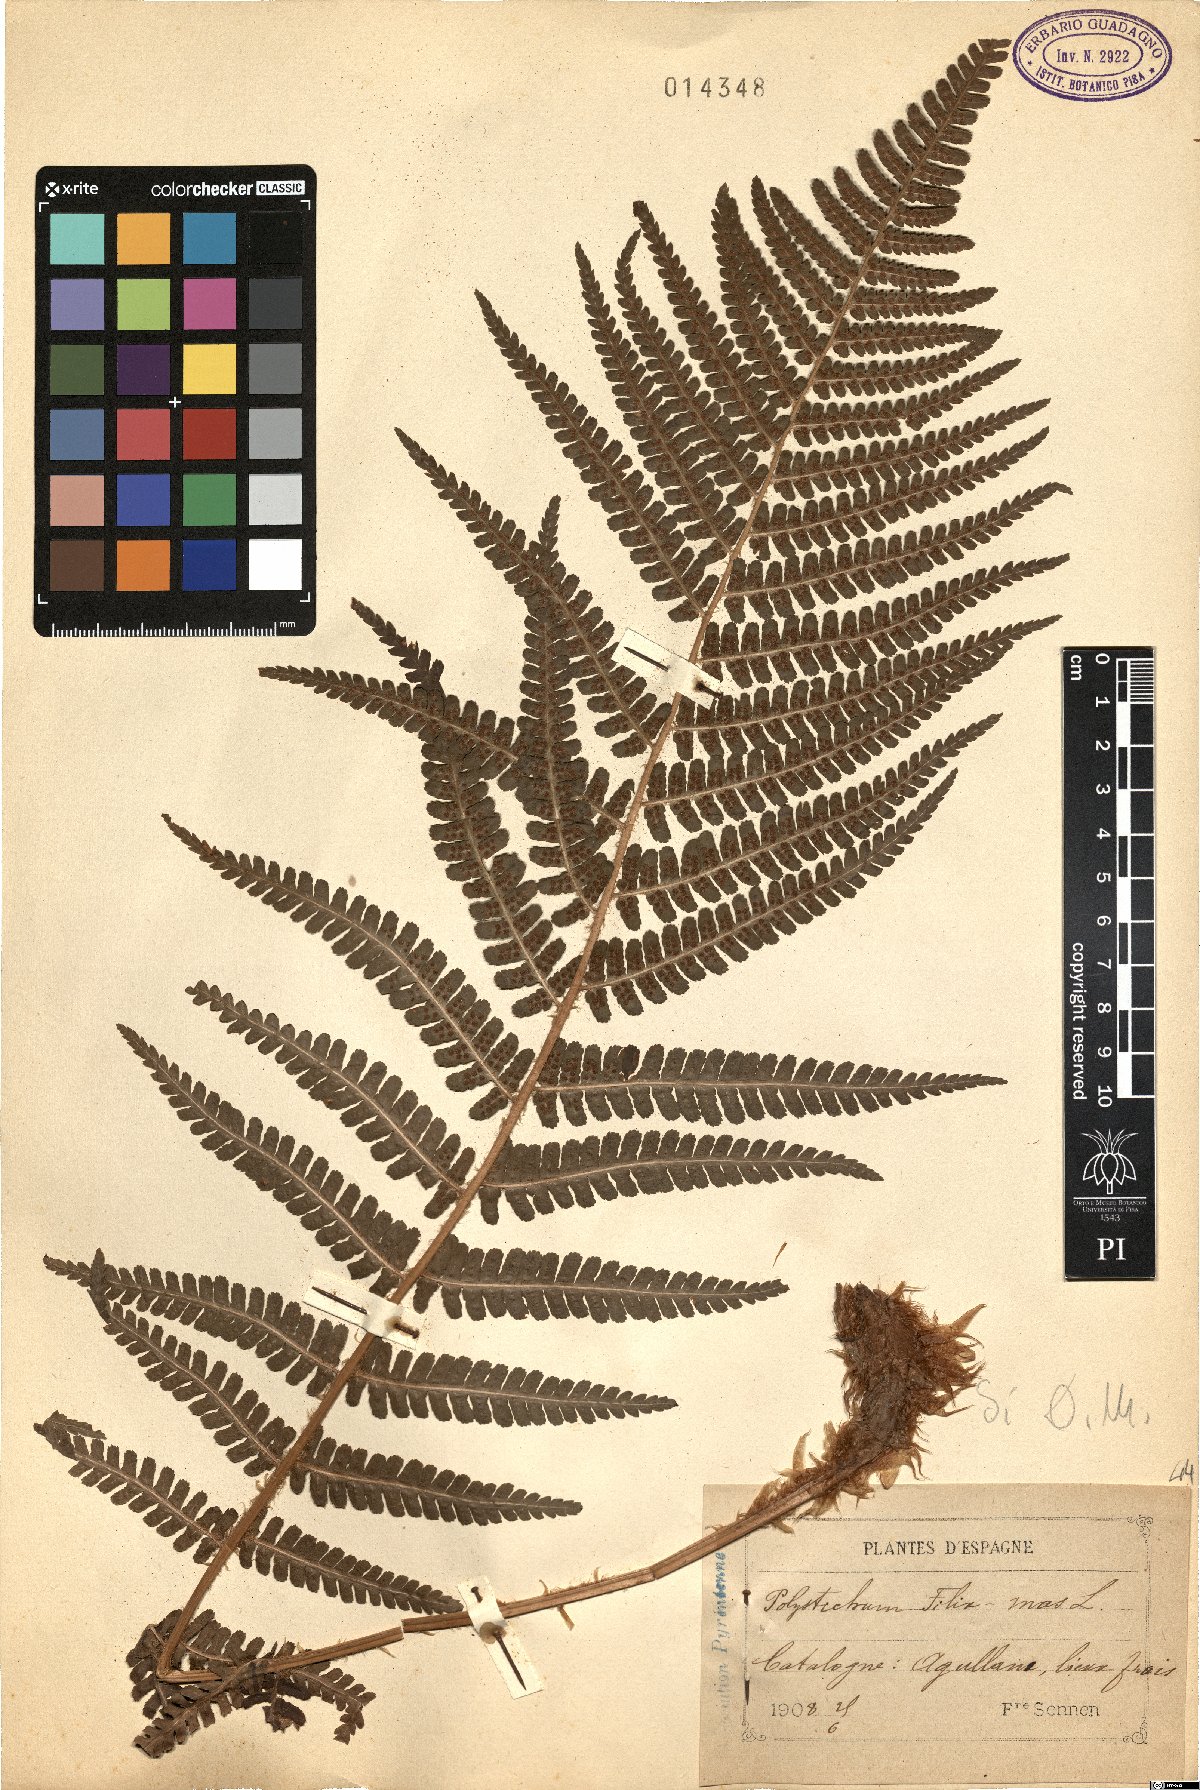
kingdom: Plantae
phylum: Tracheophyta
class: Polypodiopsida
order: Polypodiales
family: Dryopteridaceae
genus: Dryopteris
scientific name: Dryopteris filix-mas
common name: Male fern
